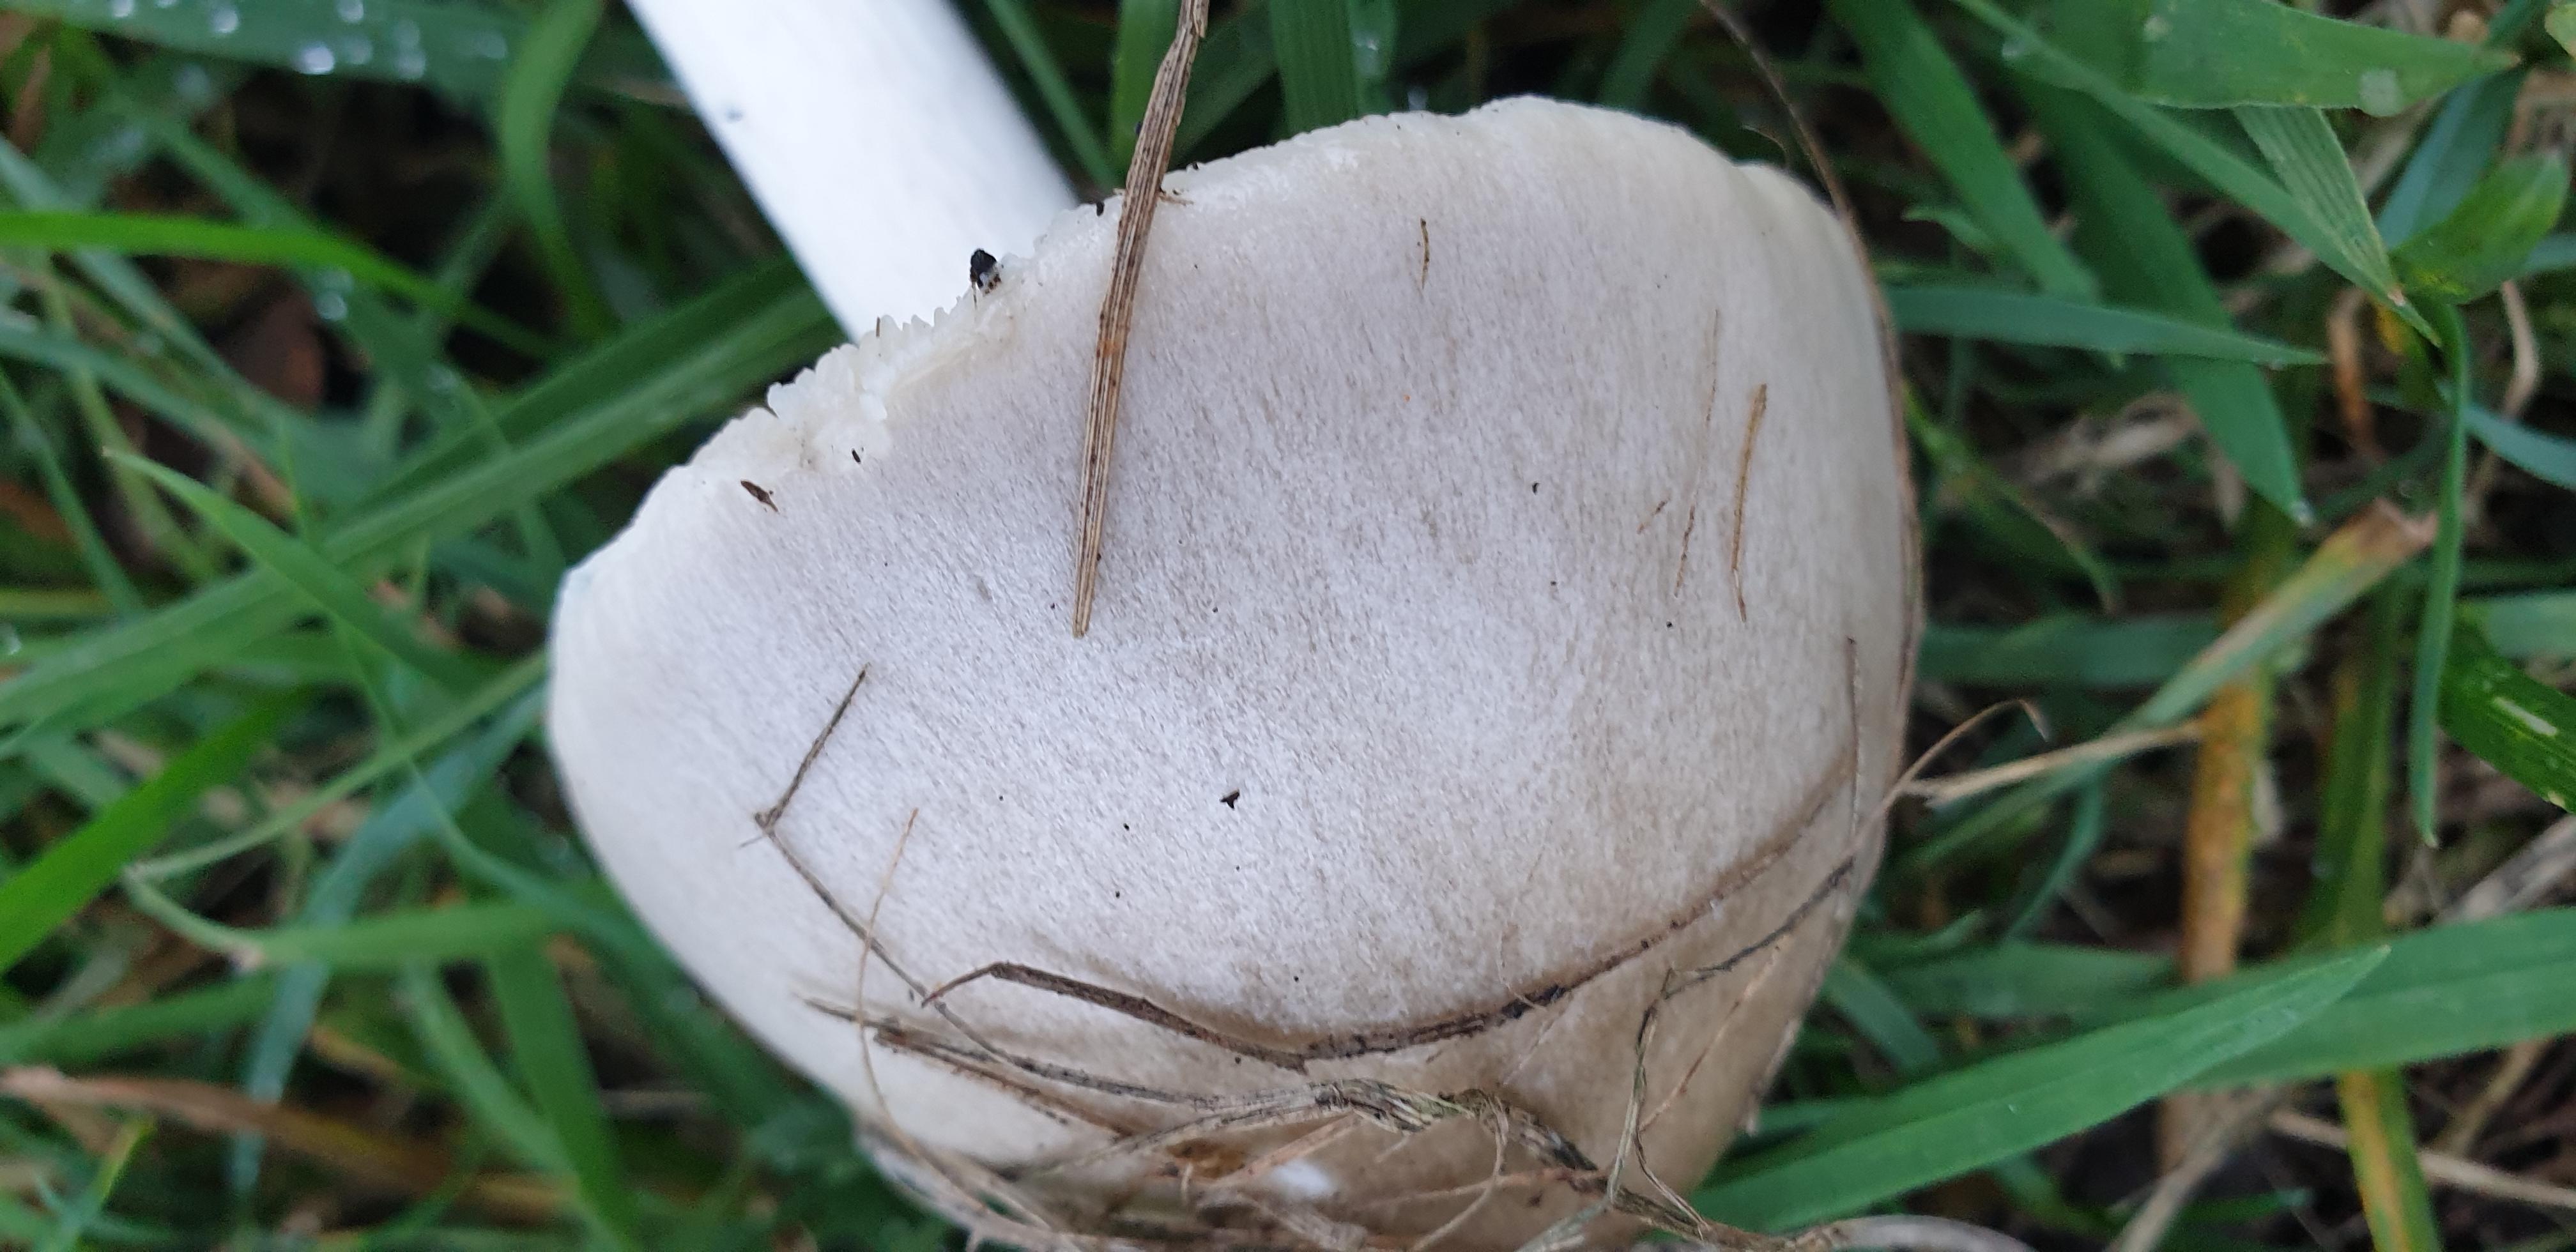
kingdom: Fungi
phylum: Basidiomycota
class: Agaricomycetes
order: Agaricales
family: Pluteaceae
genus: Volvopluteus
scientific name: Volvopluteus gloiocephalus
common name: høj posesvamp
